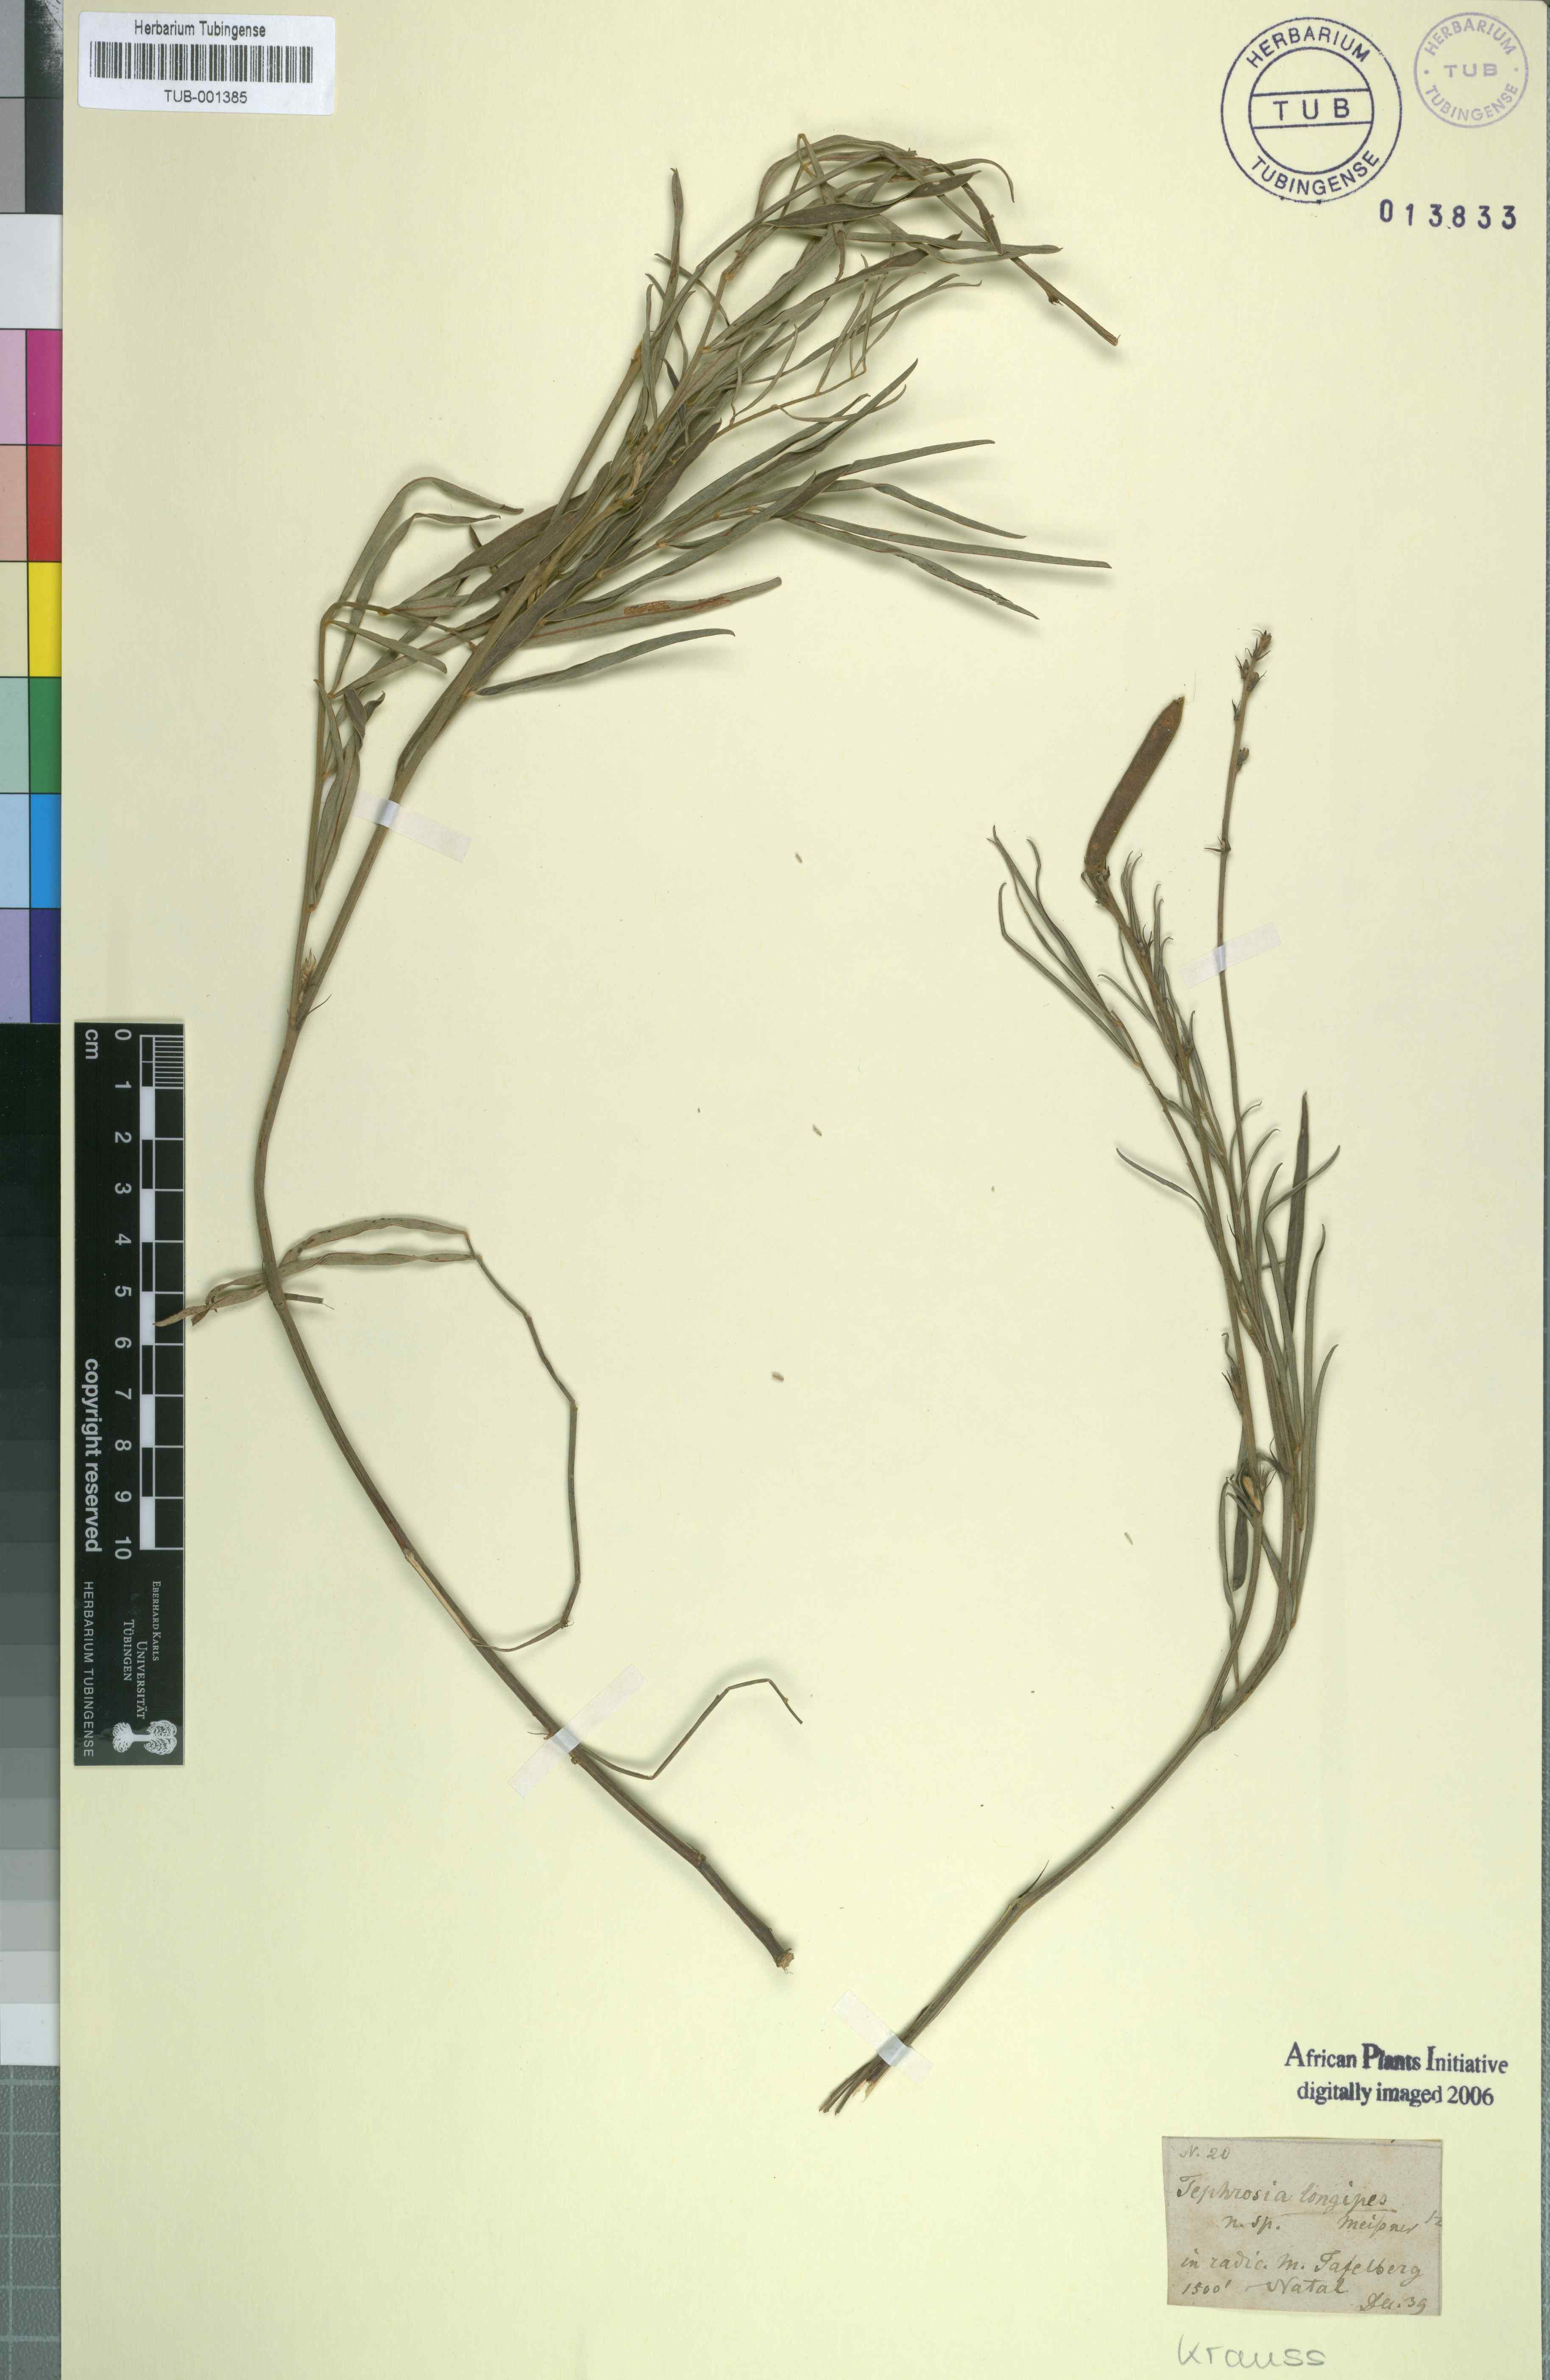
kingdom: Plantae
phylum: Tracheophyta
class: Magnoliopsida
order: Fabales
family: Fabaceae
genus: Tephrosia
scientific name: Tephrosia longipes
